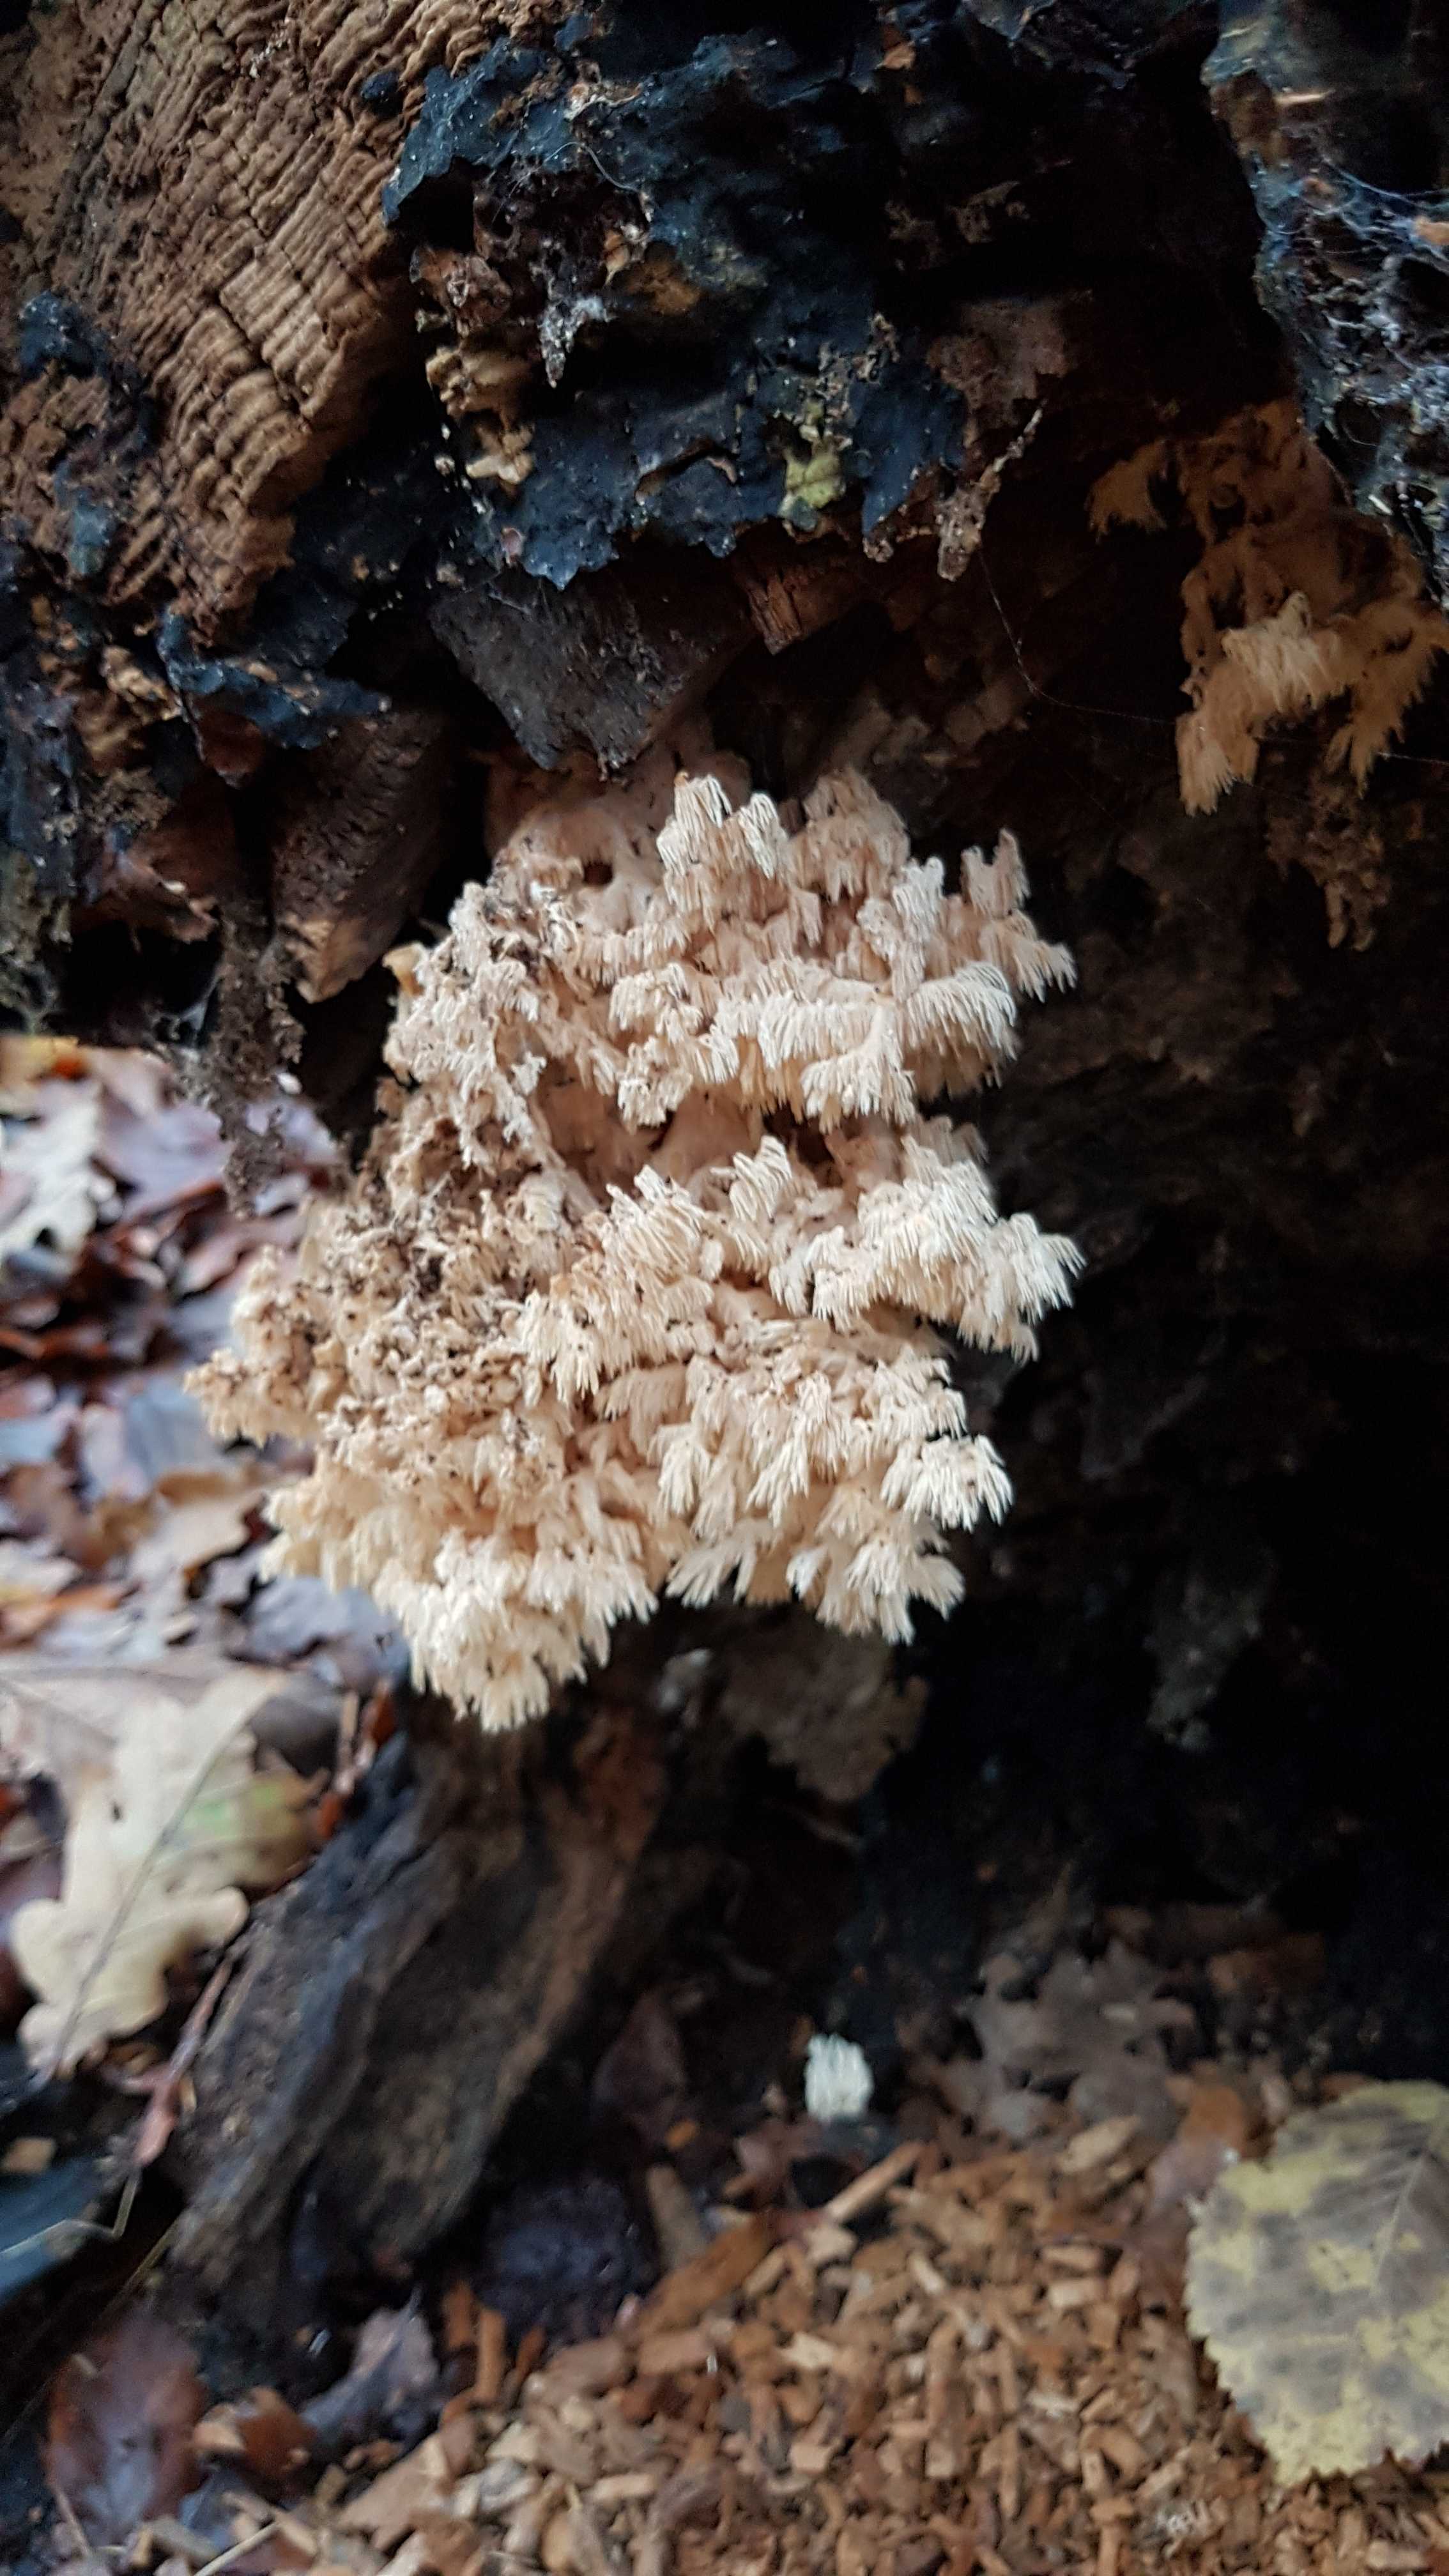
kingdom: Fungi
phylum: Basidiomycota
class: Agaricomycetes
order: Russulales
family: Hericiaceae
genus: Hericium
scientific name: Hericium coralloides
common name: koralpigsvamp
